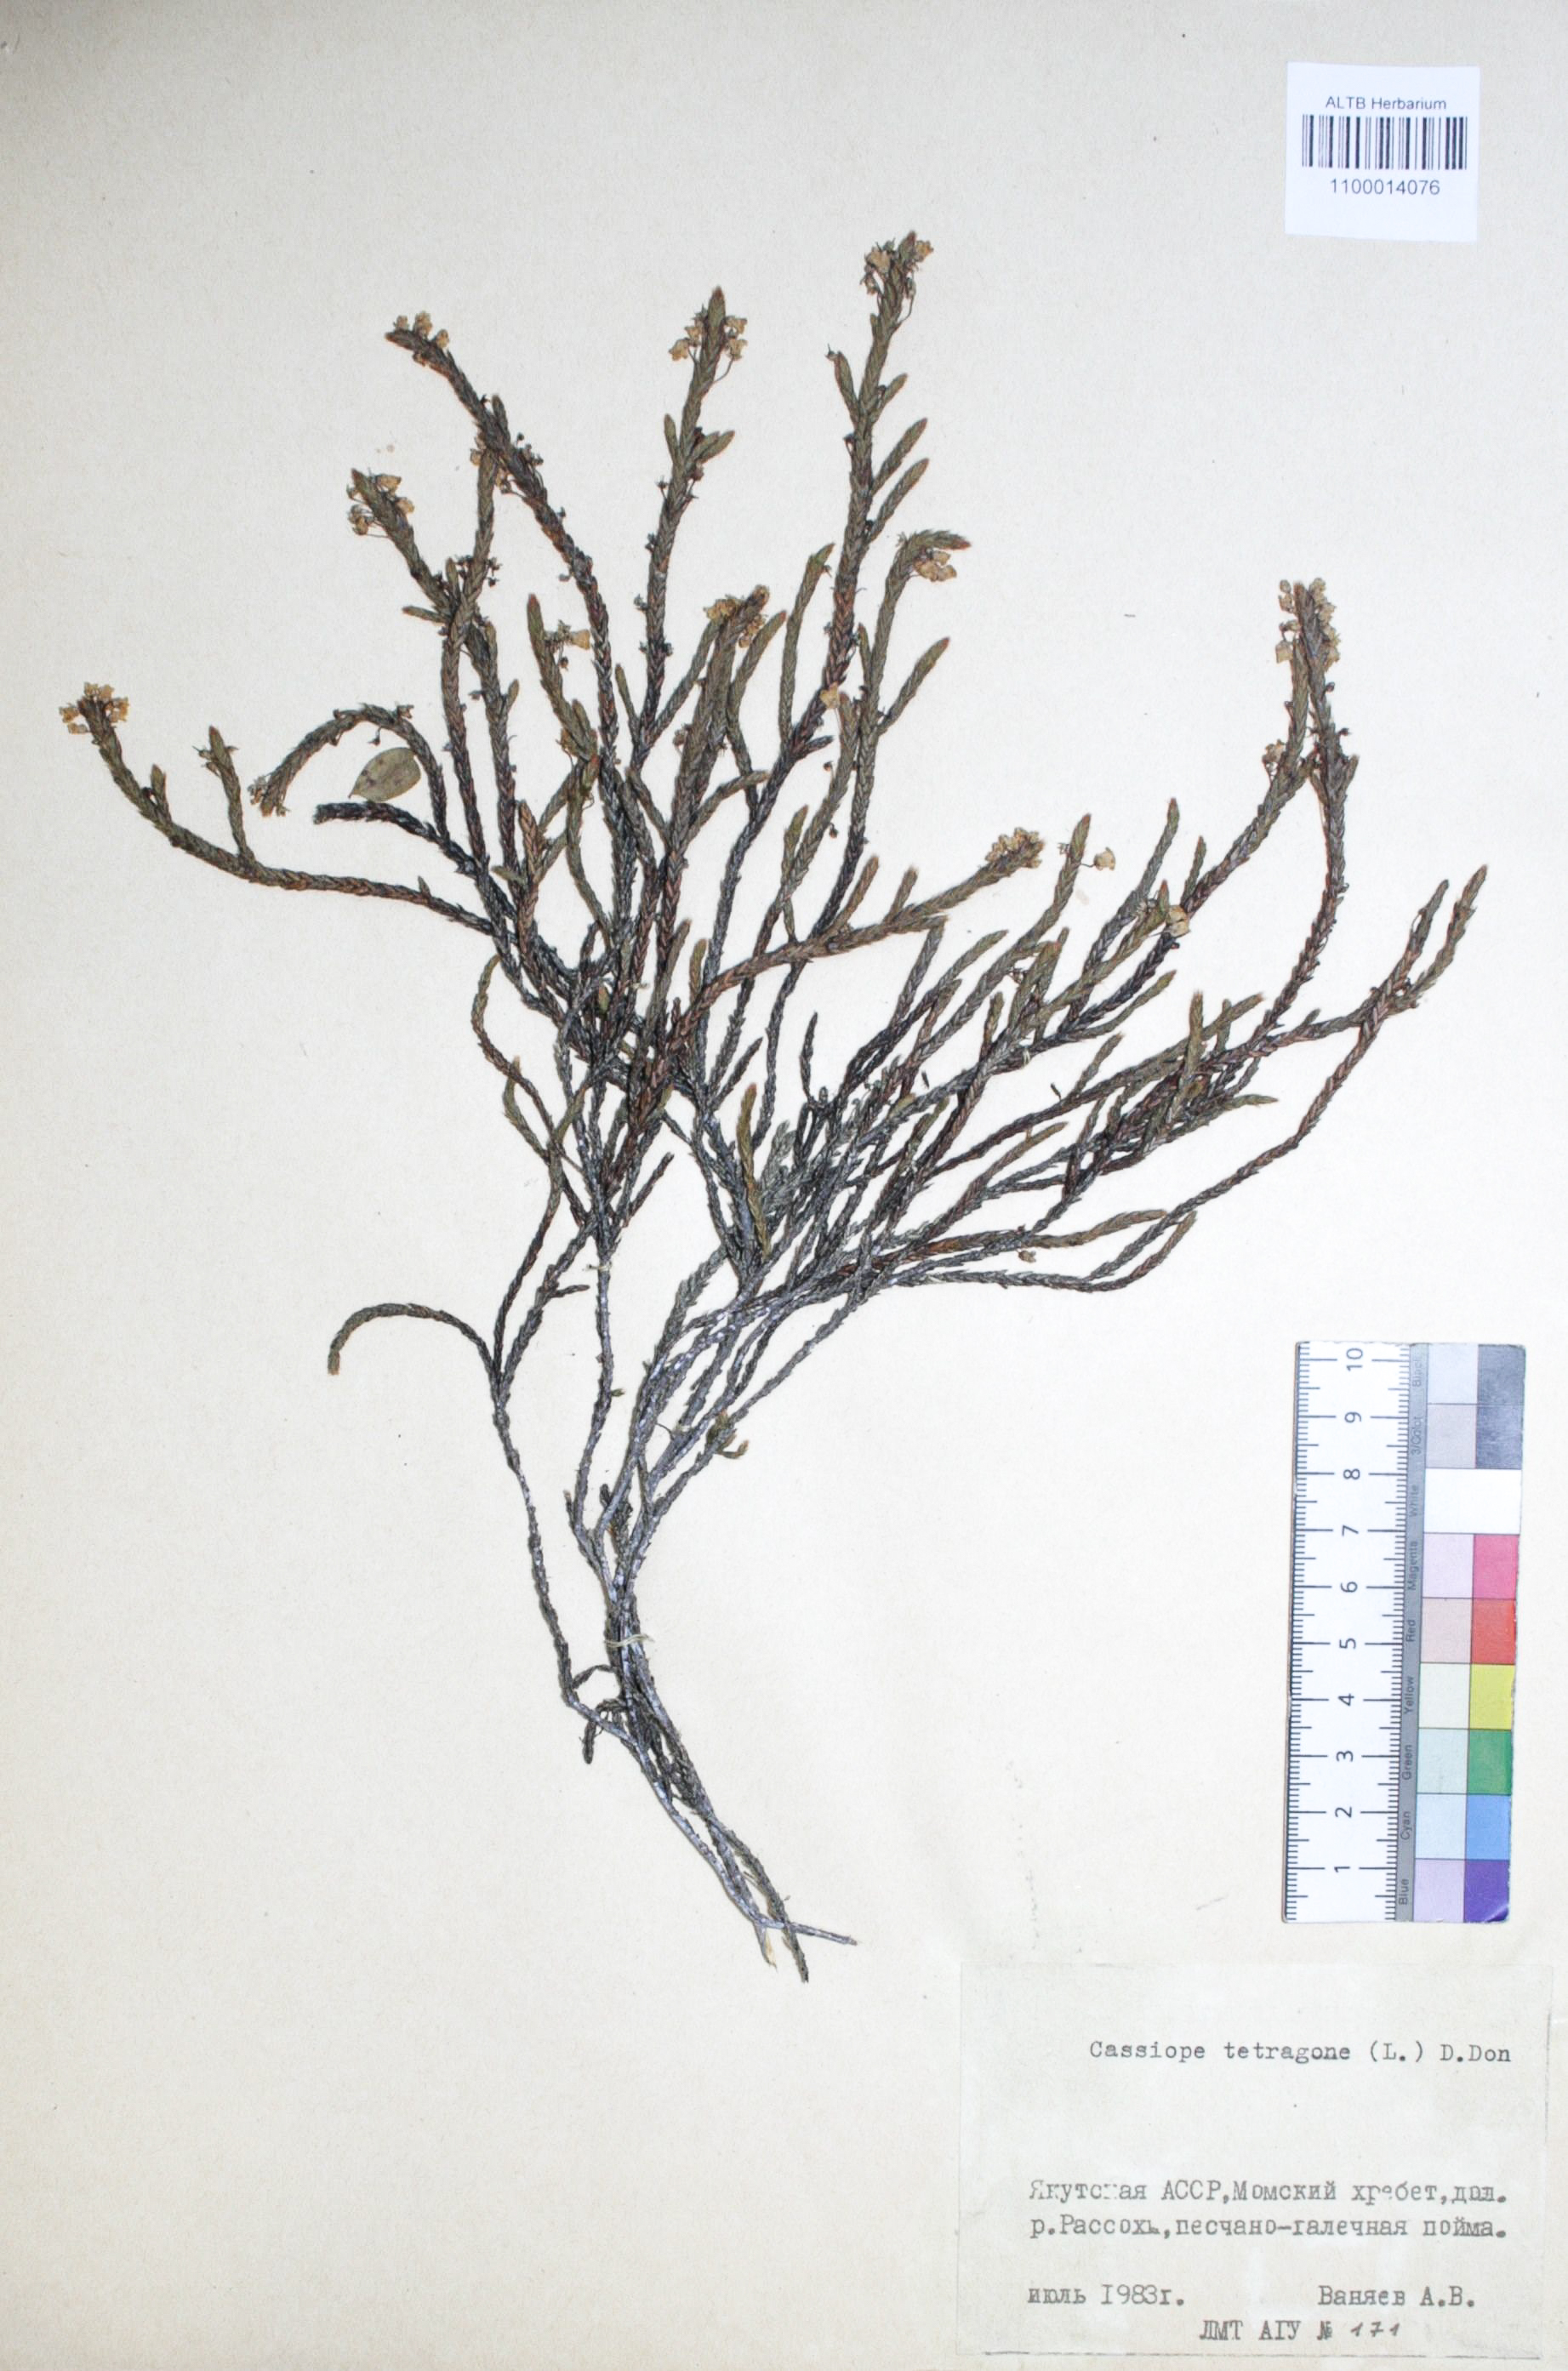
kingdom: Plantae
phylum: Tracheophyta
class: Magnoliopsida
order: Ericales
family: Ericaceae
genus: Cassiope
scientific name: Cassiope tetragona
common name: Arctic bell heather
